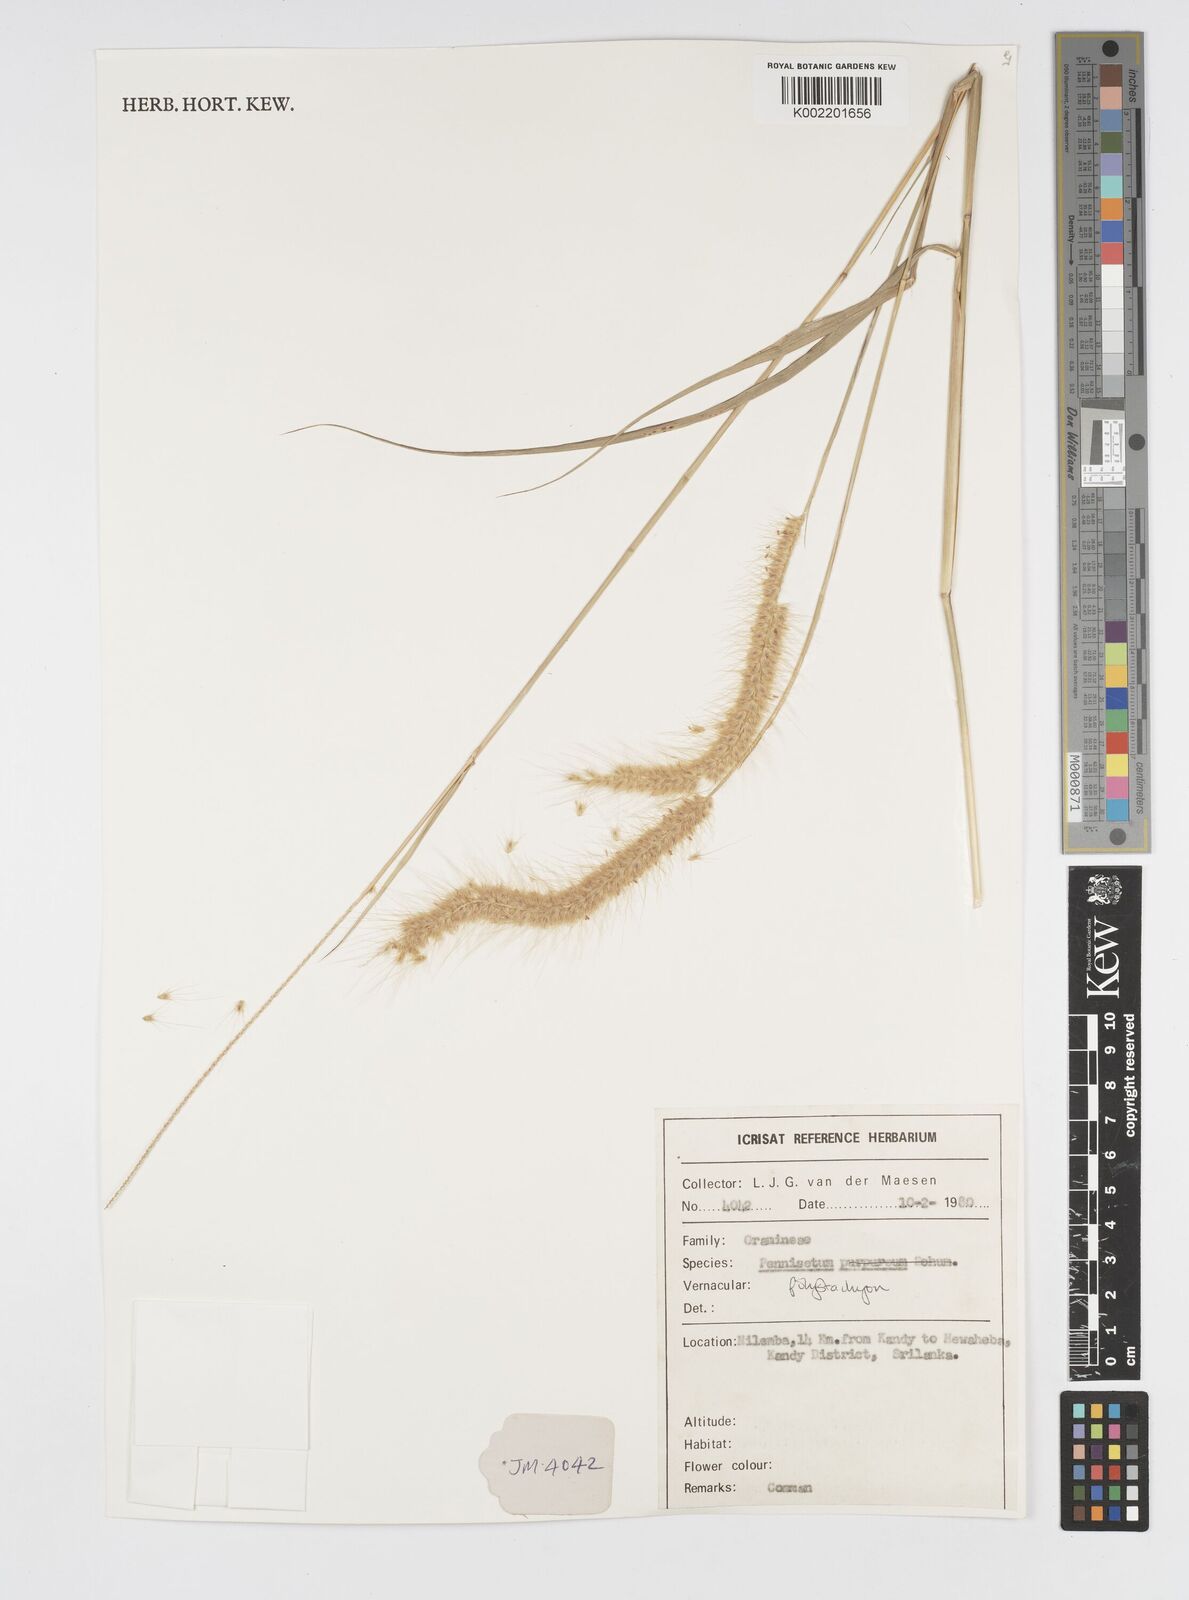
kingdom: Plantae
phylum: Tracheophyta
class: Liliopsida
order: Poales
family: Poaceae
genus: Setaria
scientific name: Setaria parviflora
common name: Knotroot bristle-grass
